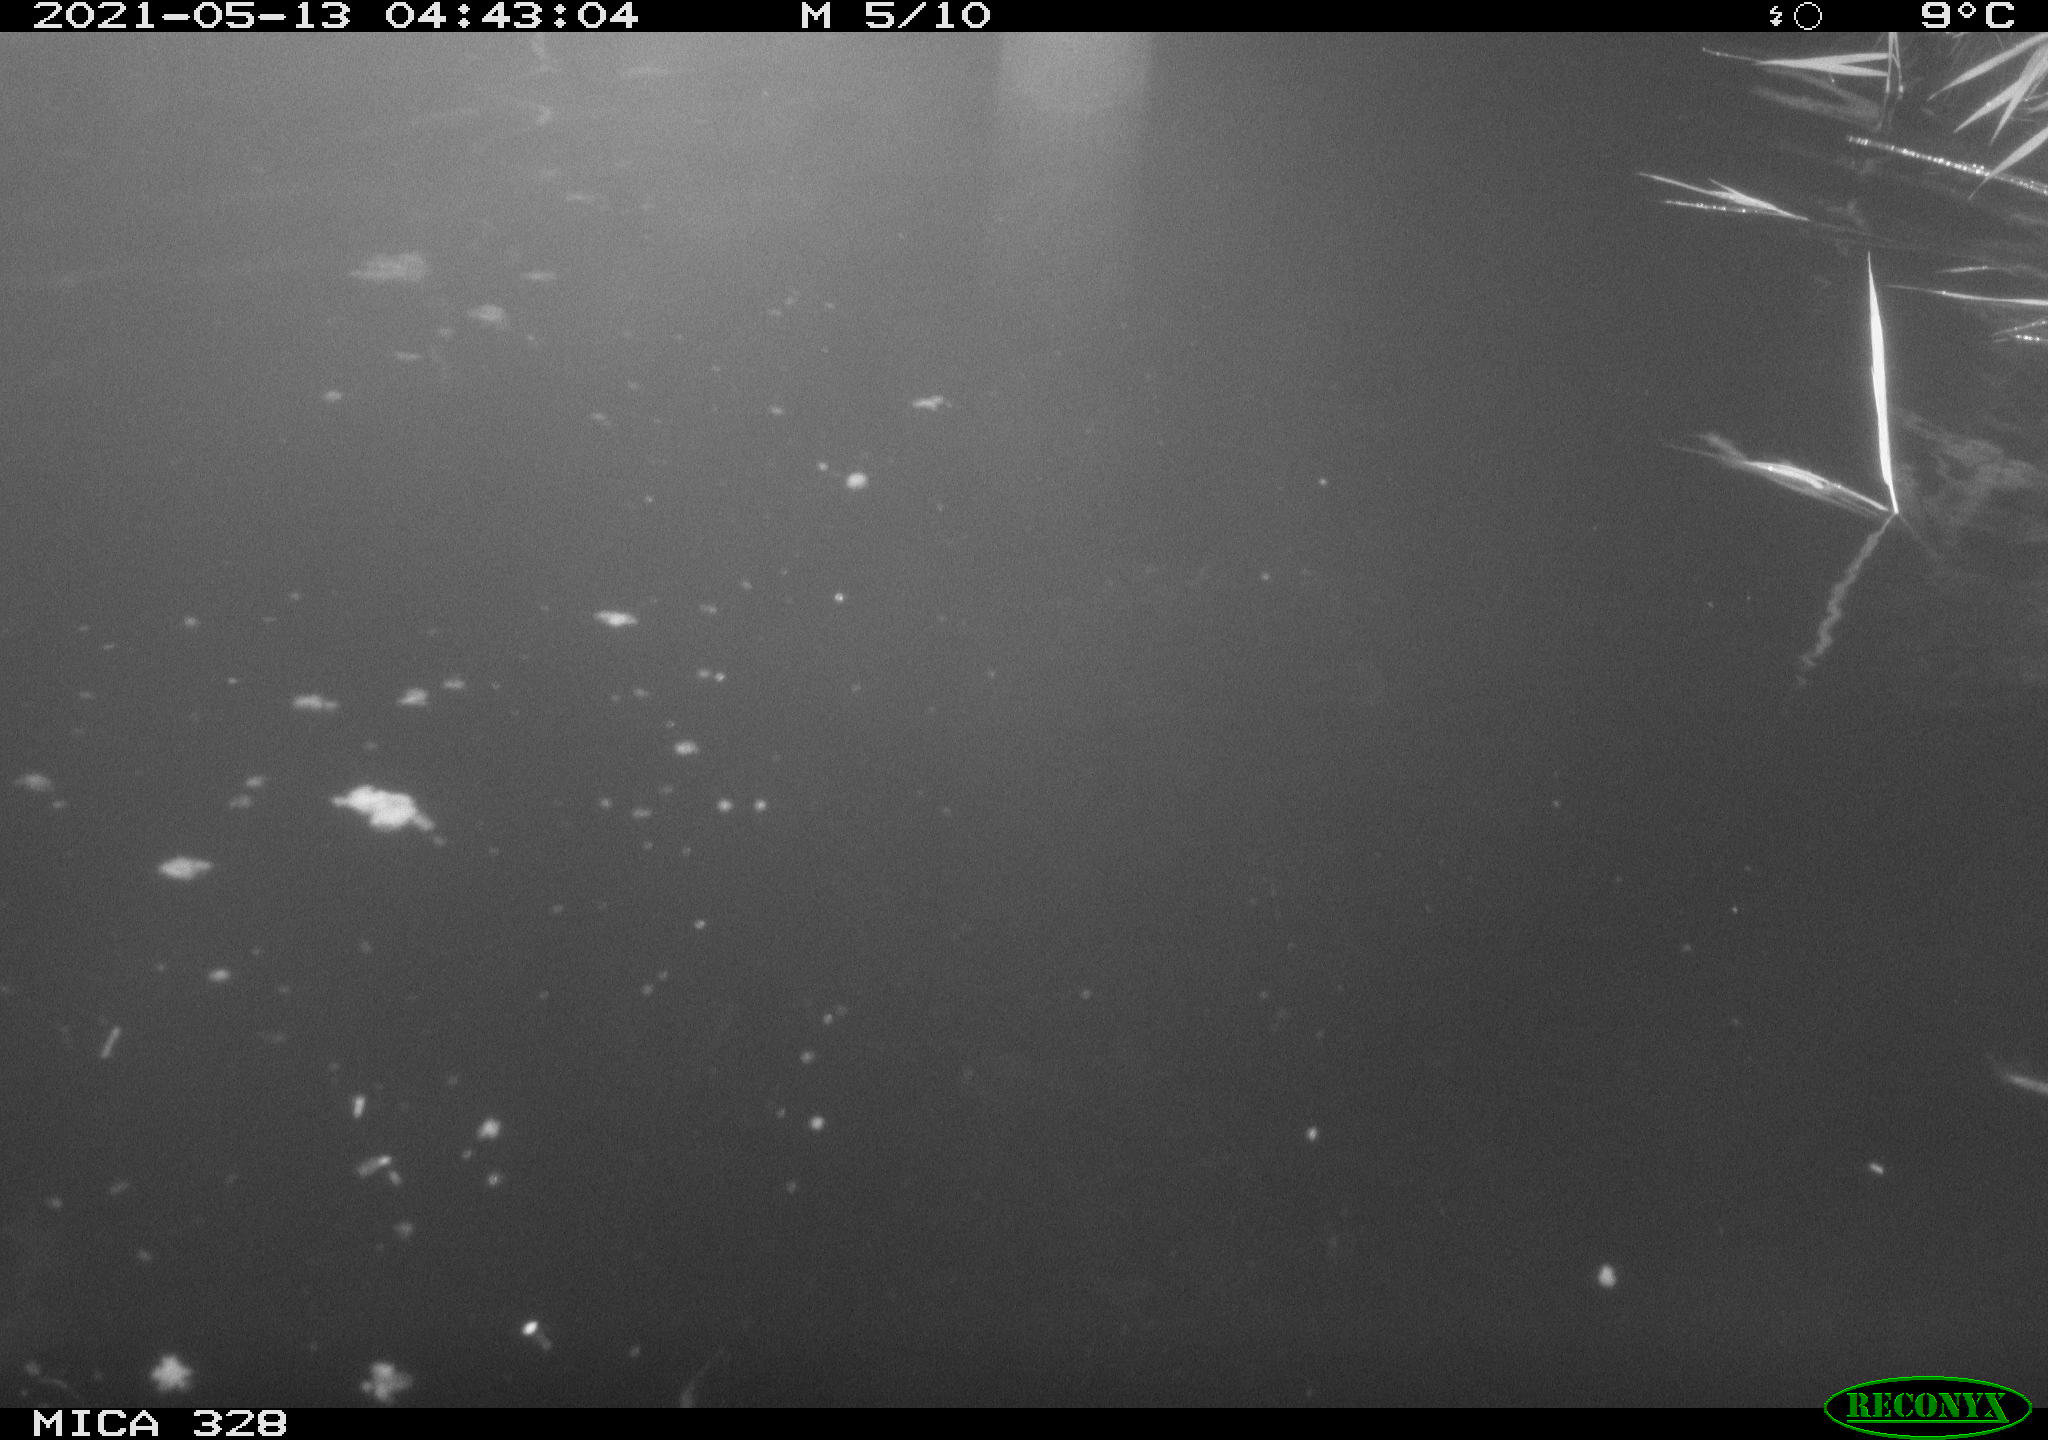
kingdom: Animalia
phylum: Chordata
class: Mammalia
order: Rodentia
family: Cricetidae
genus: Ondatra
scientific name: Ondatra zibethicus
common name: Muskrat
